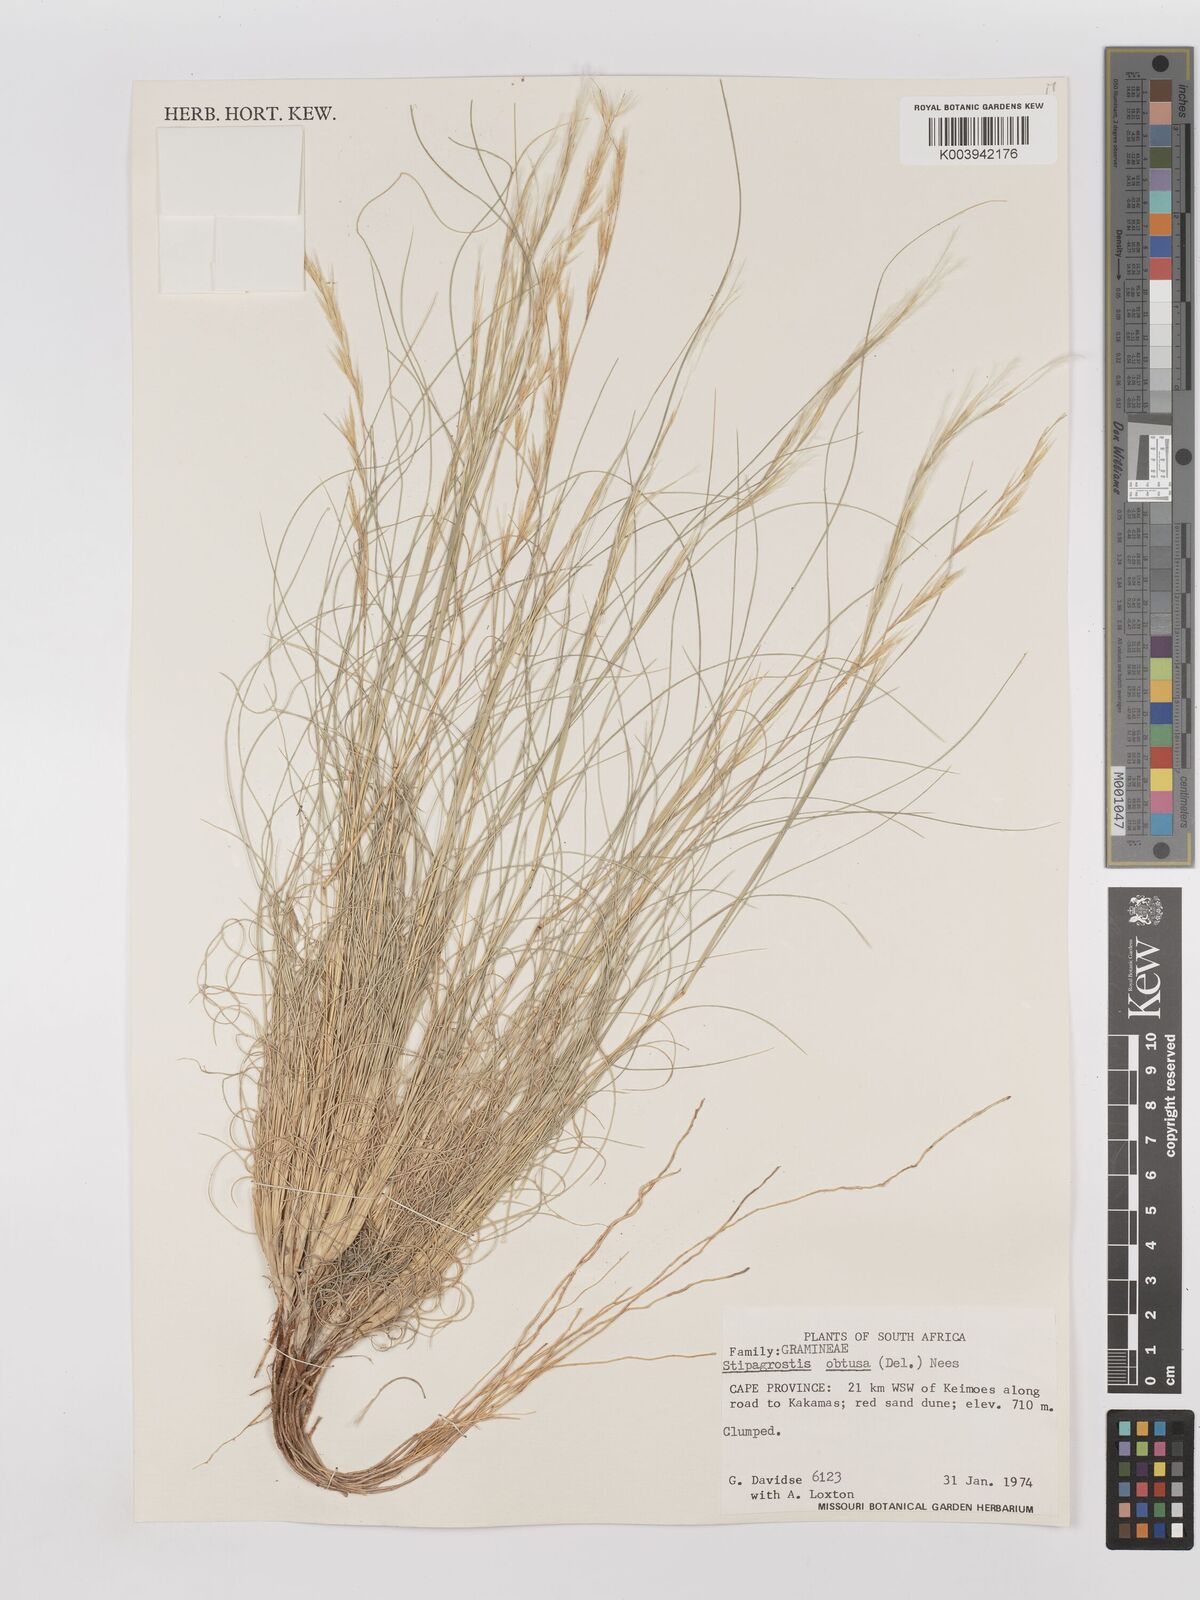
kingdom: Plantae
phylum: Tracheophyta
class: Liliopsida
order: Poales
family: Poaceae
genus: Stipagrostis
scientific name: Stipagrostis obtusa
